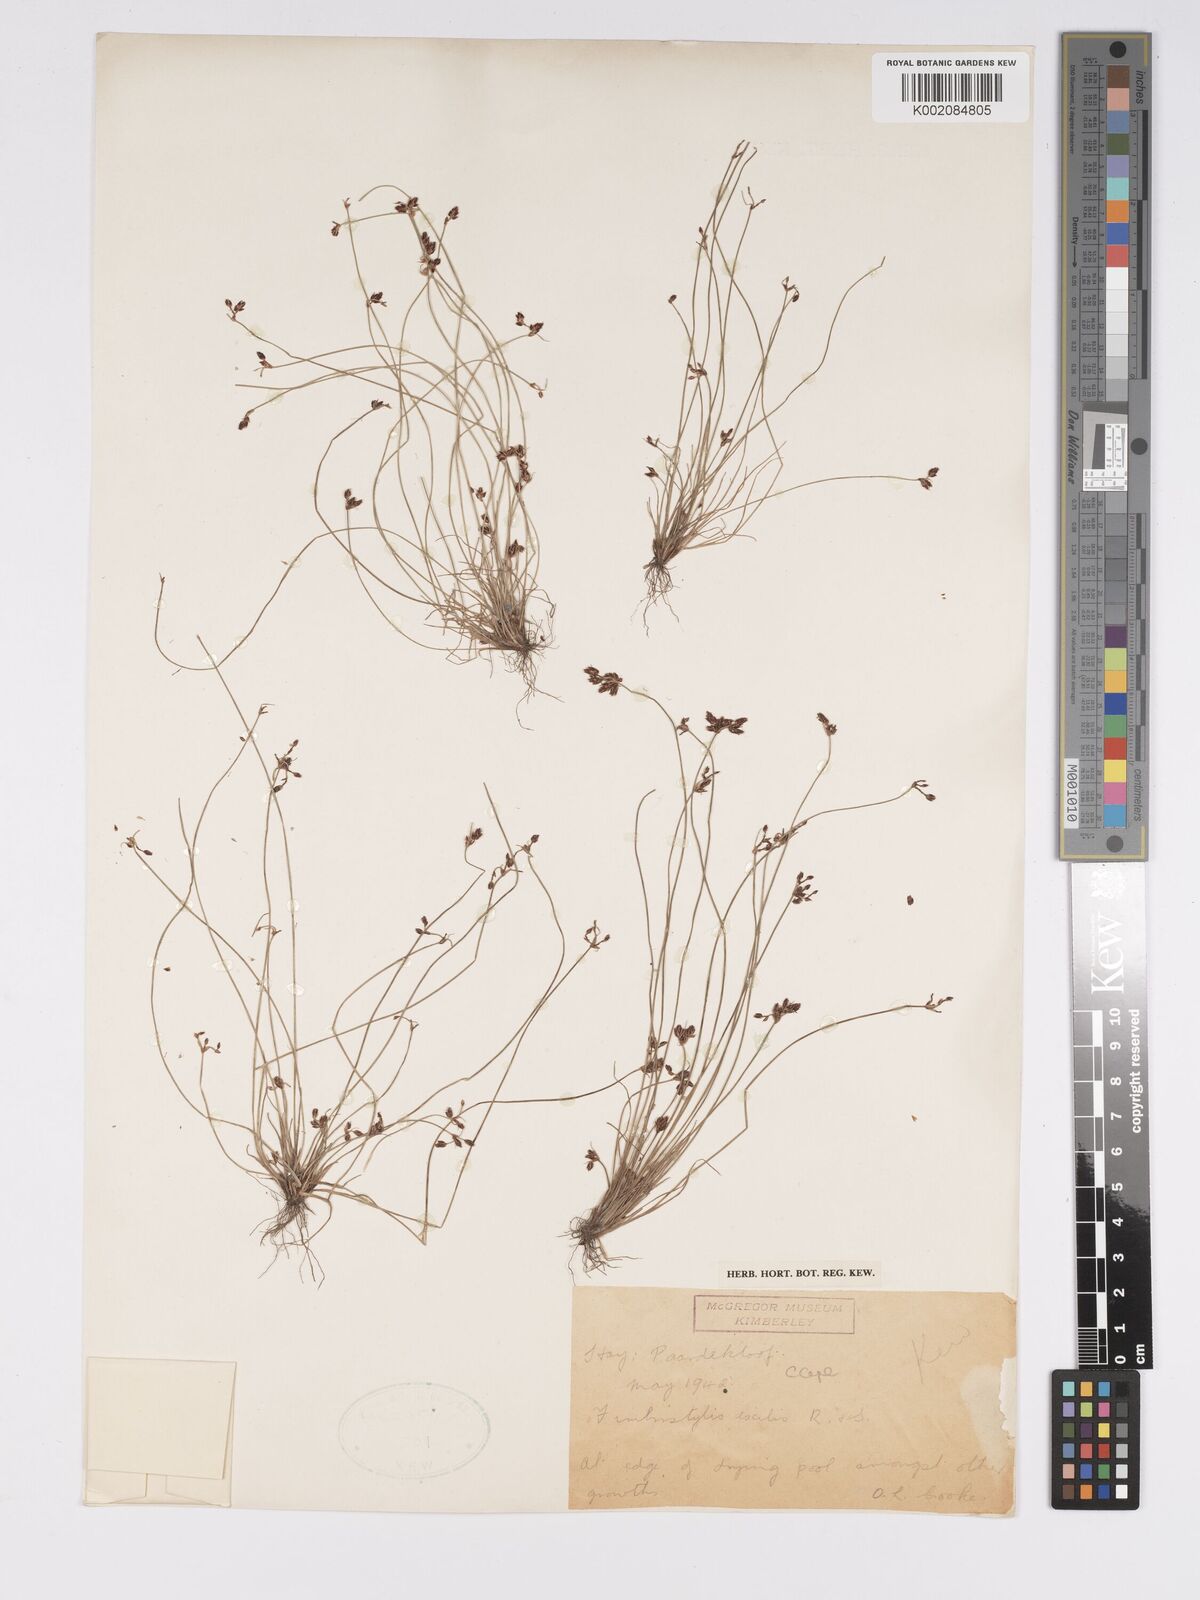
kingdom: Plantae
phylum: Tracheophyta
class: Liliopsida
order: Poales
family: Cyperaceae
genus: Bulbostylis
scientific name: Bulbostylis hispidula
